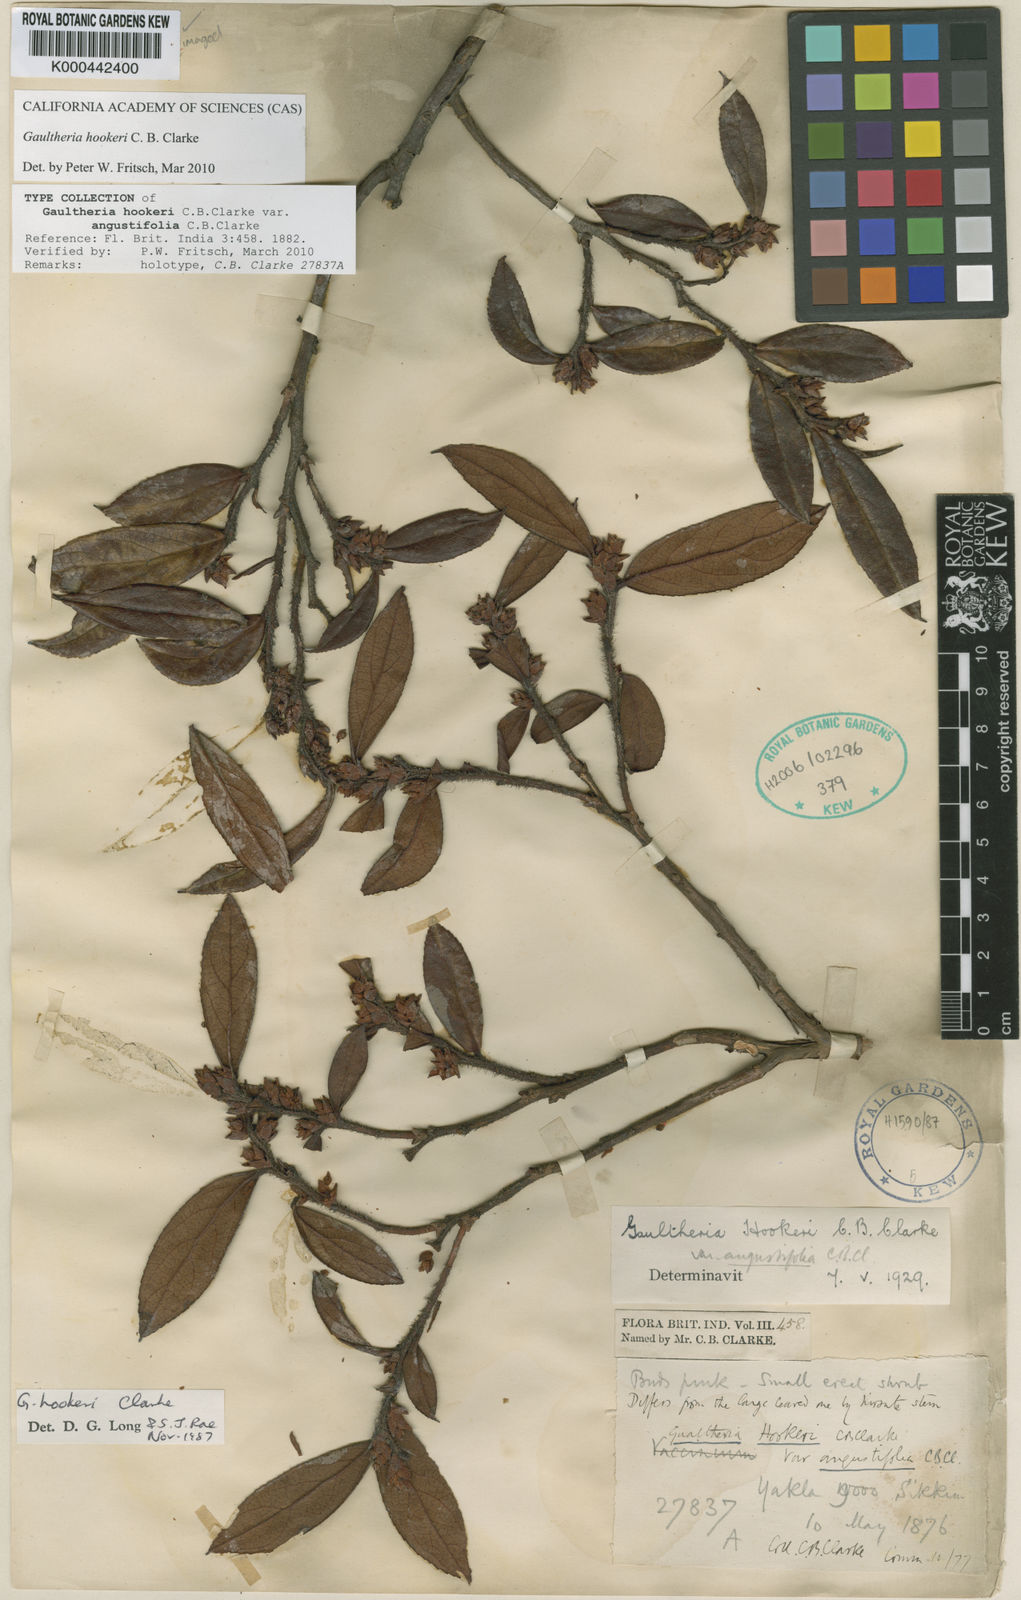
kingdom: Plantae
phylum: Tracheophyta
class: Magnoliopsida
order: Ericales
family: Ericaceae
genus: Gaultheria
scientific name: Gaultheria hookeri
